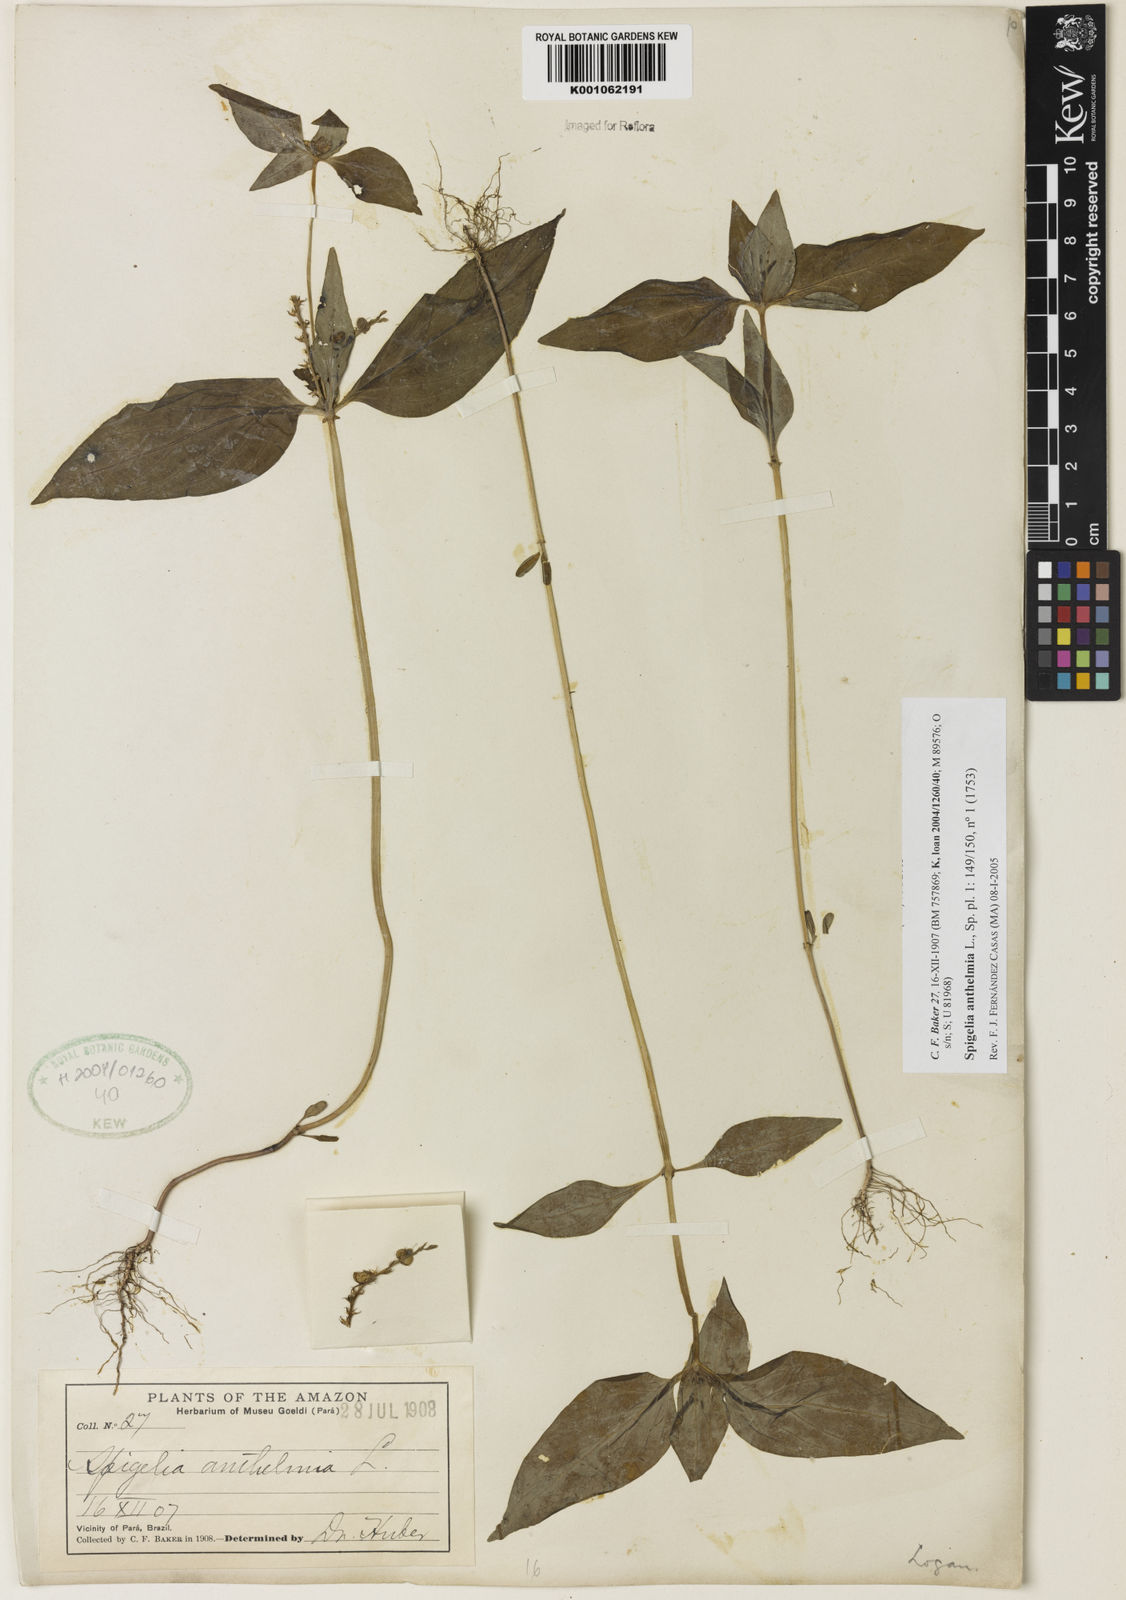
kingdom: Plantae
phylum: Tracheophyta
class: Magnoliopsida
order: Gentianales
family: Loganiaceae
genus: Spigelia
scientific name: Spigelia anthelmia
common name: West indian-pink
